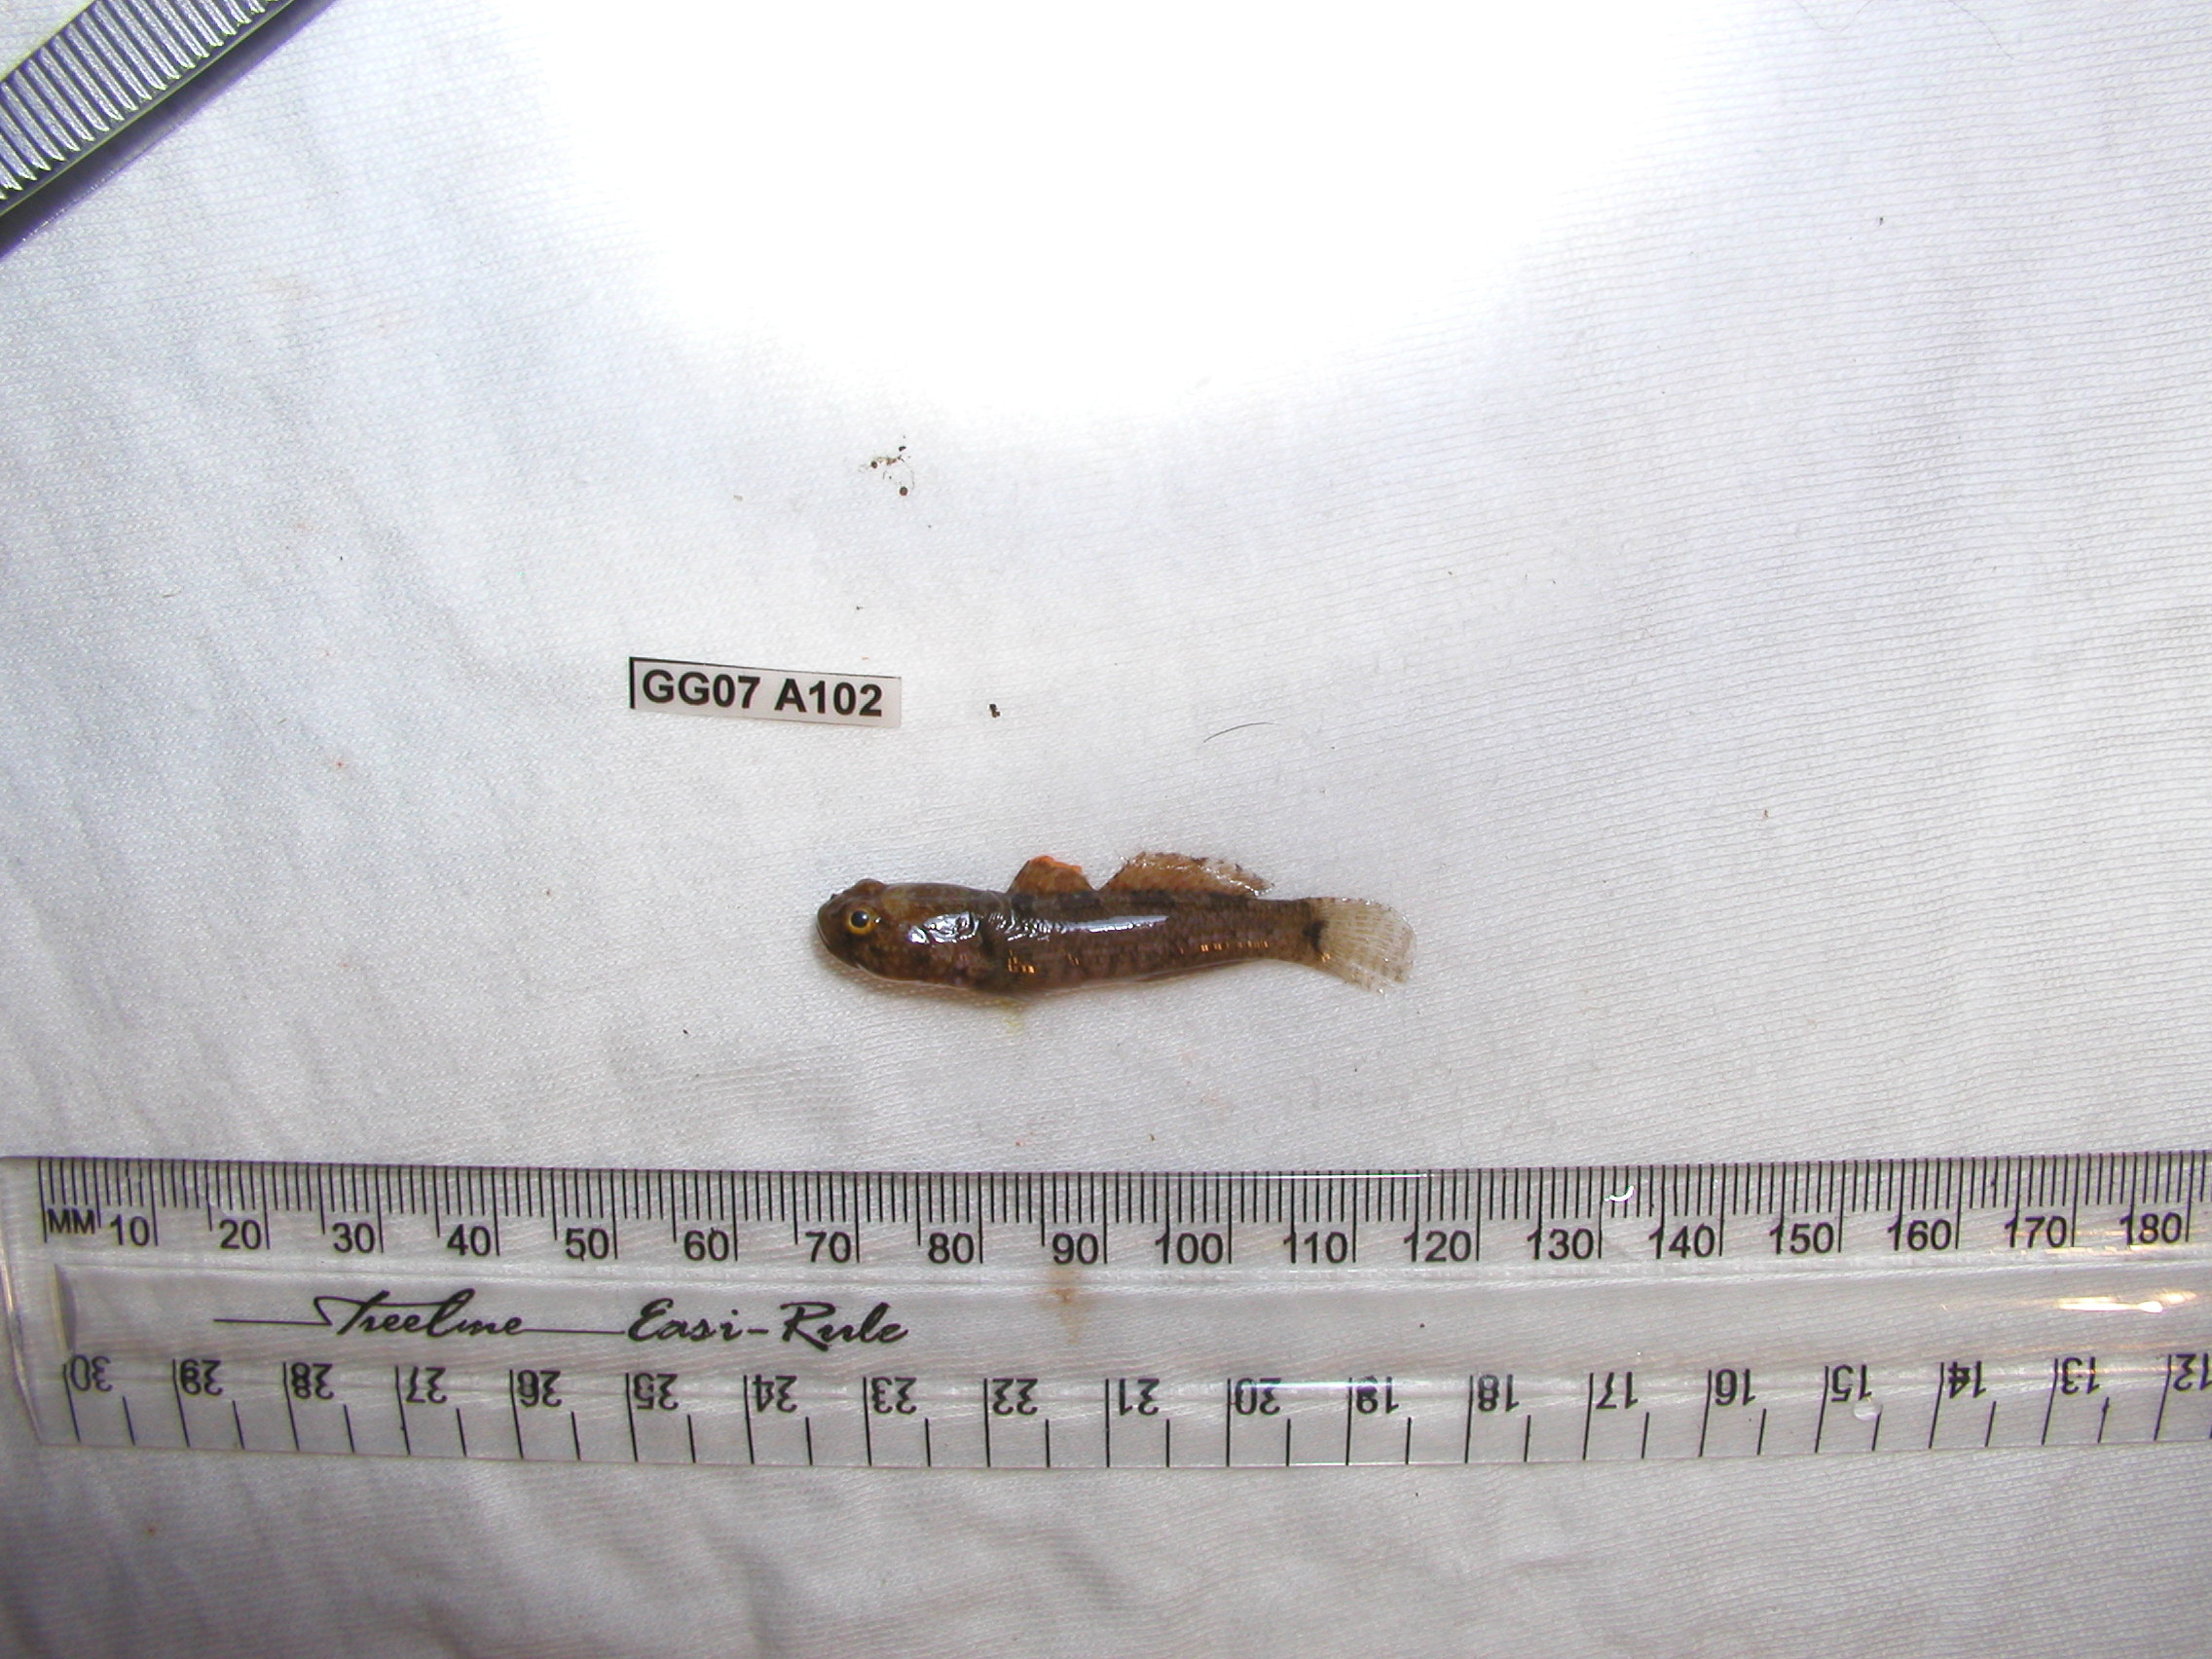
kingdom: Animalia
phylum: Chordata
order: Perciformes
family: Gobiidae
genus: Coryogalops
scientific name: Coryogalops william
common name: Kaalpens goby
